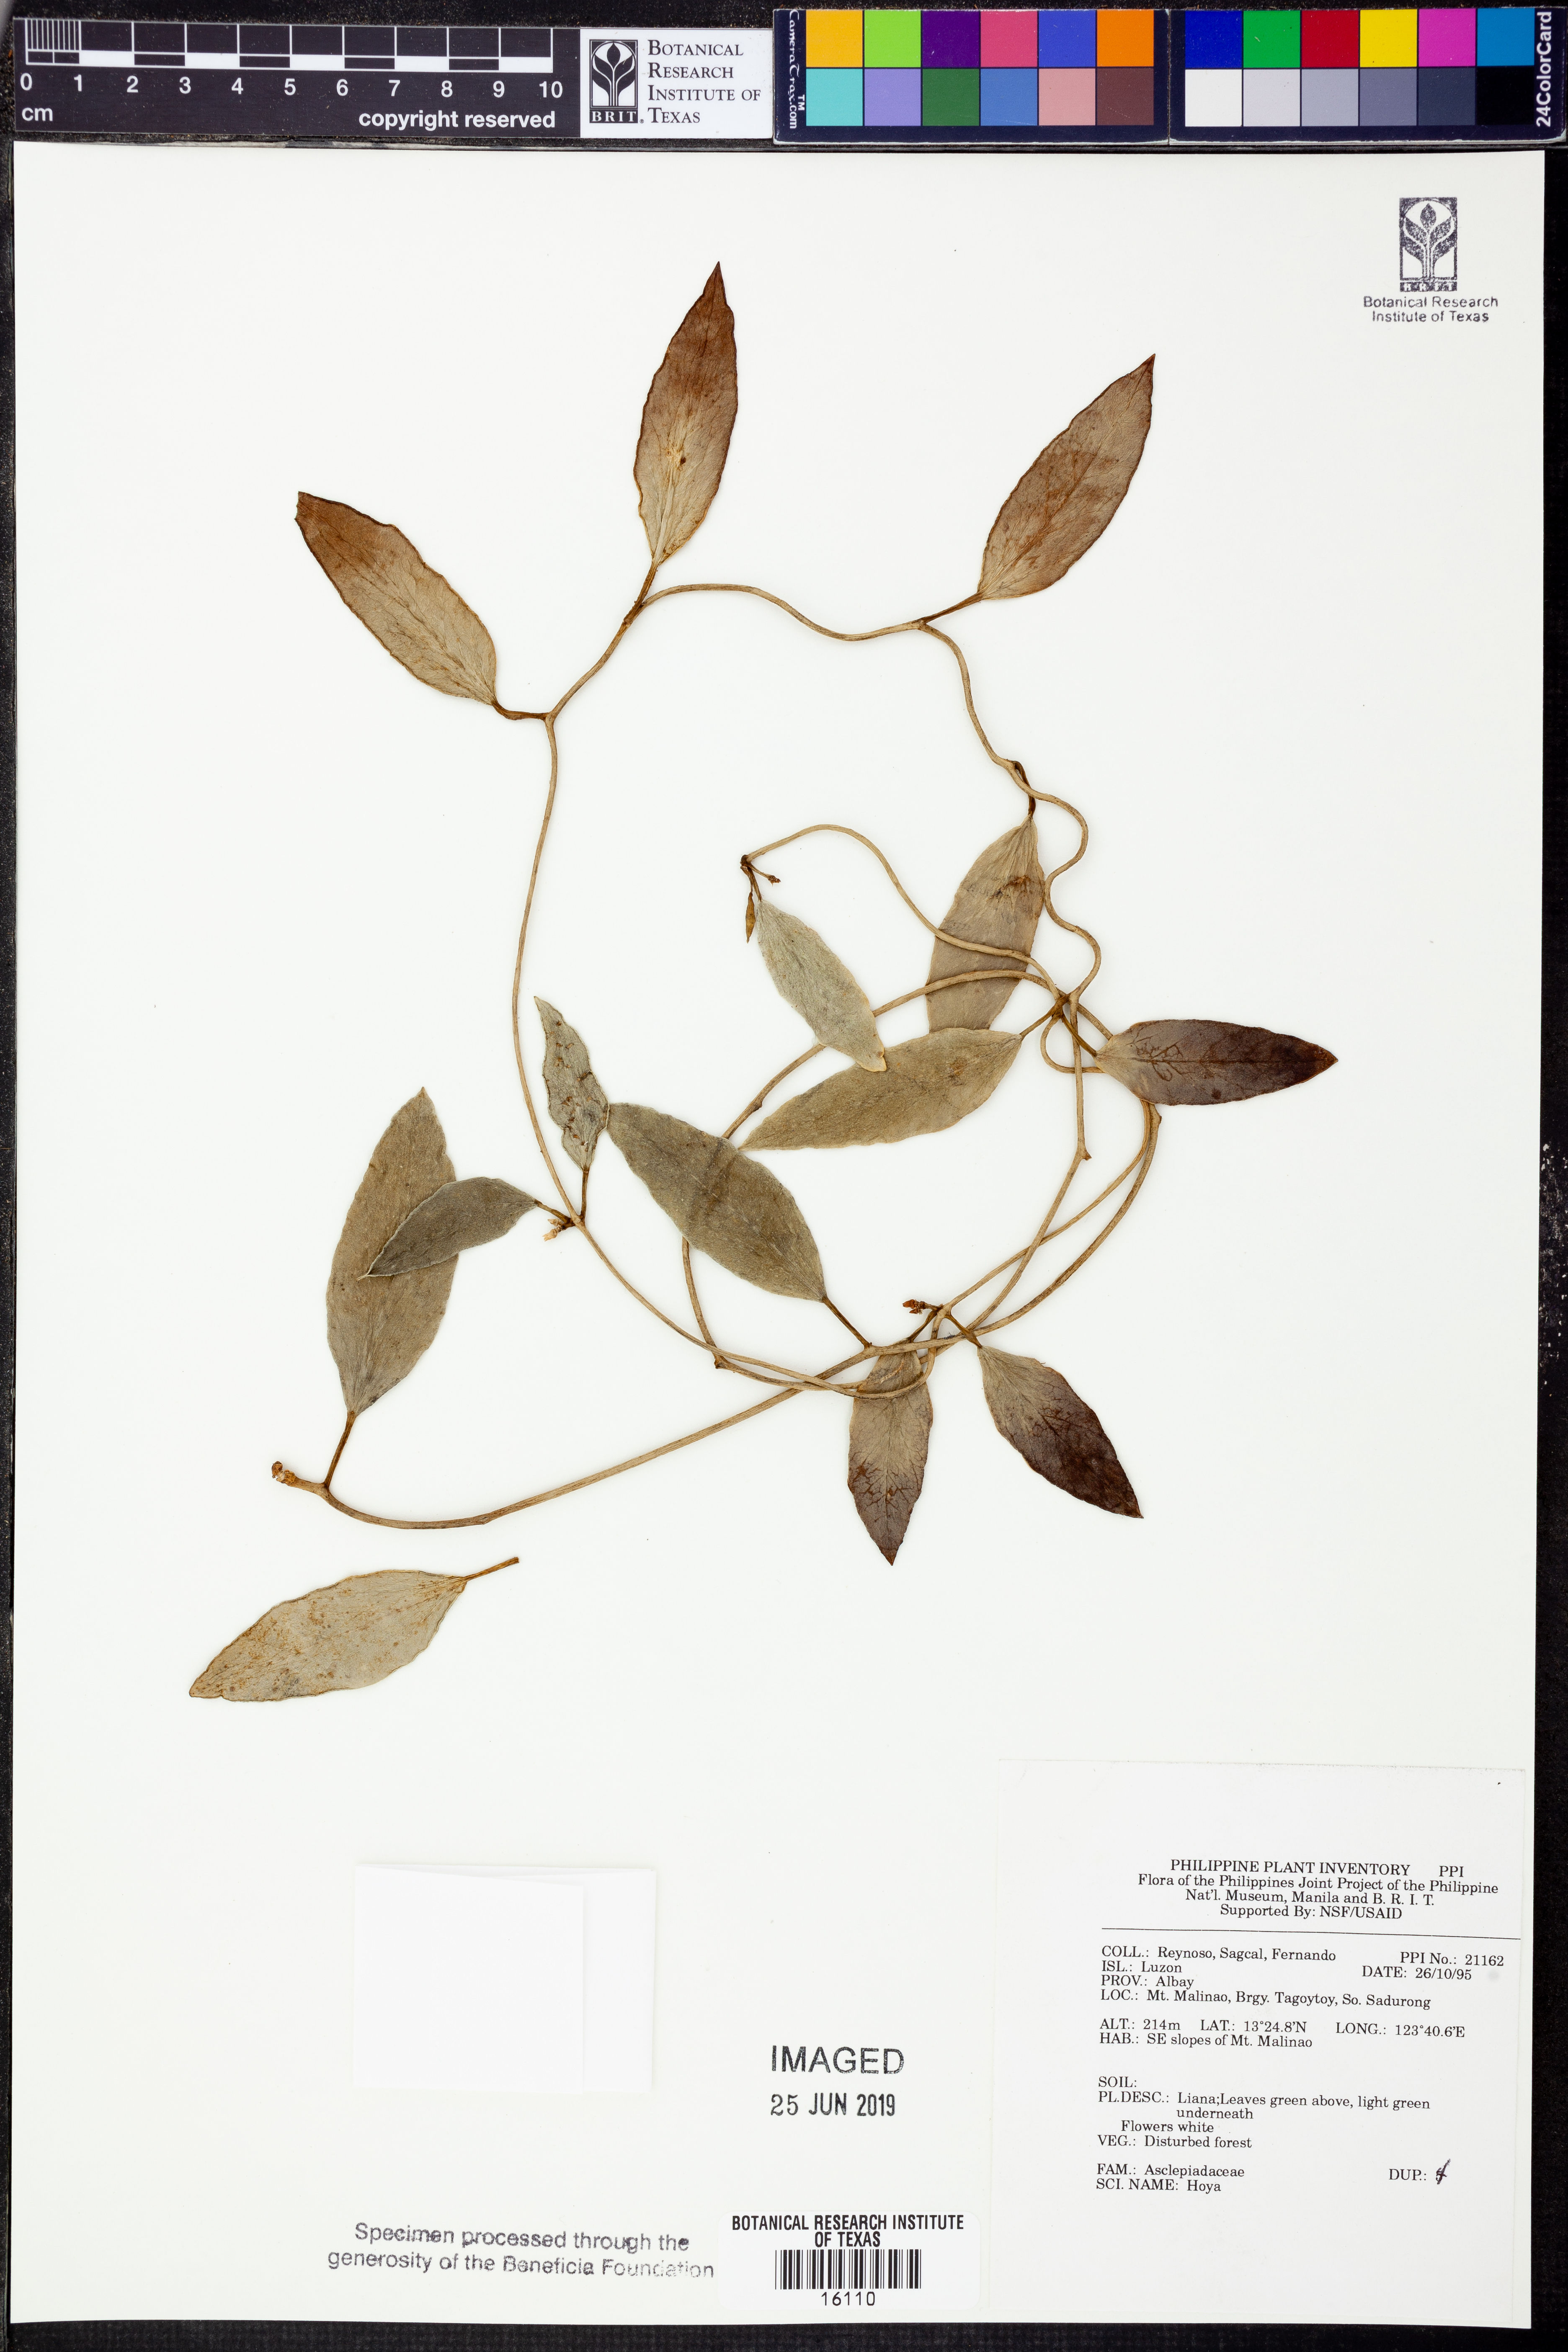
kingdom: Plantae
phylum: Tracheophyta
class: Magnoliopsida
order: Gentianales
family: Apocynaceae
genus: Hoya
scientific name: Hoya
